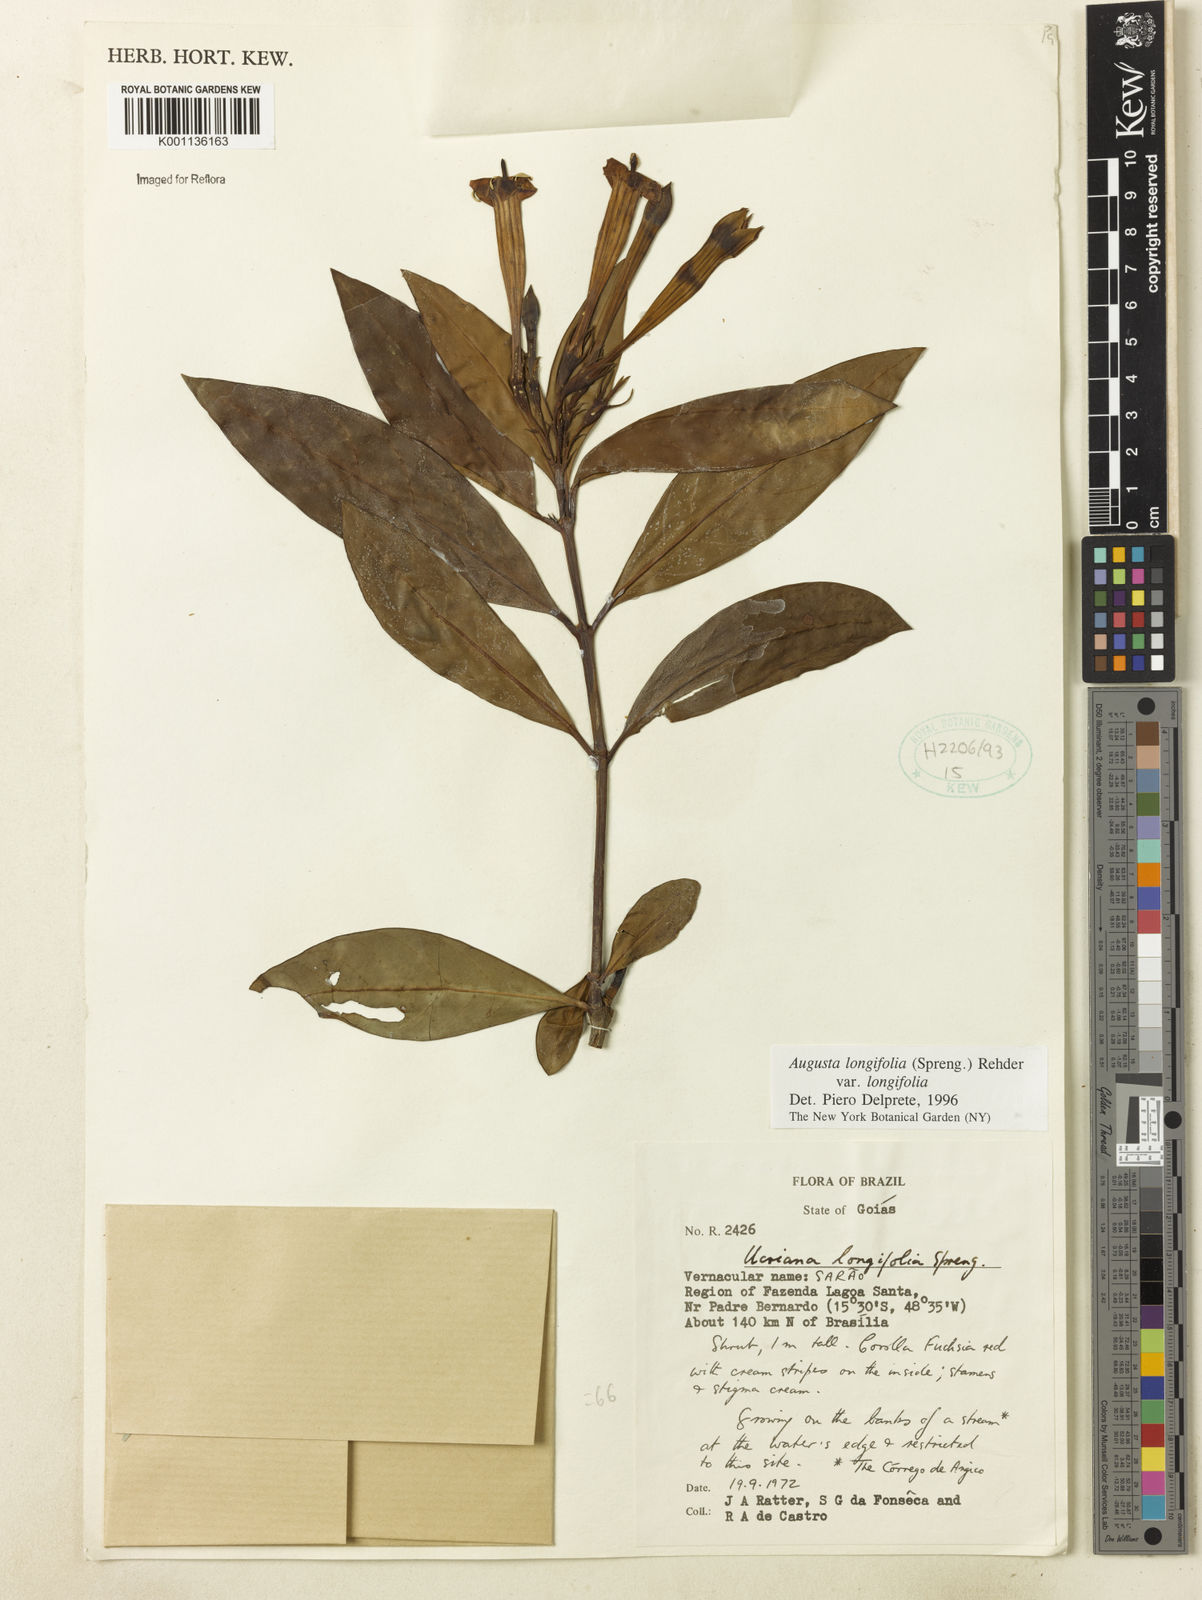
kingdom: Plantae
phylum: Tracheophyta
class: Magnoliopsida
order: Gentianales
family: Rubiaceae
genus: Augusta
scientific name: Augusta longifolia
